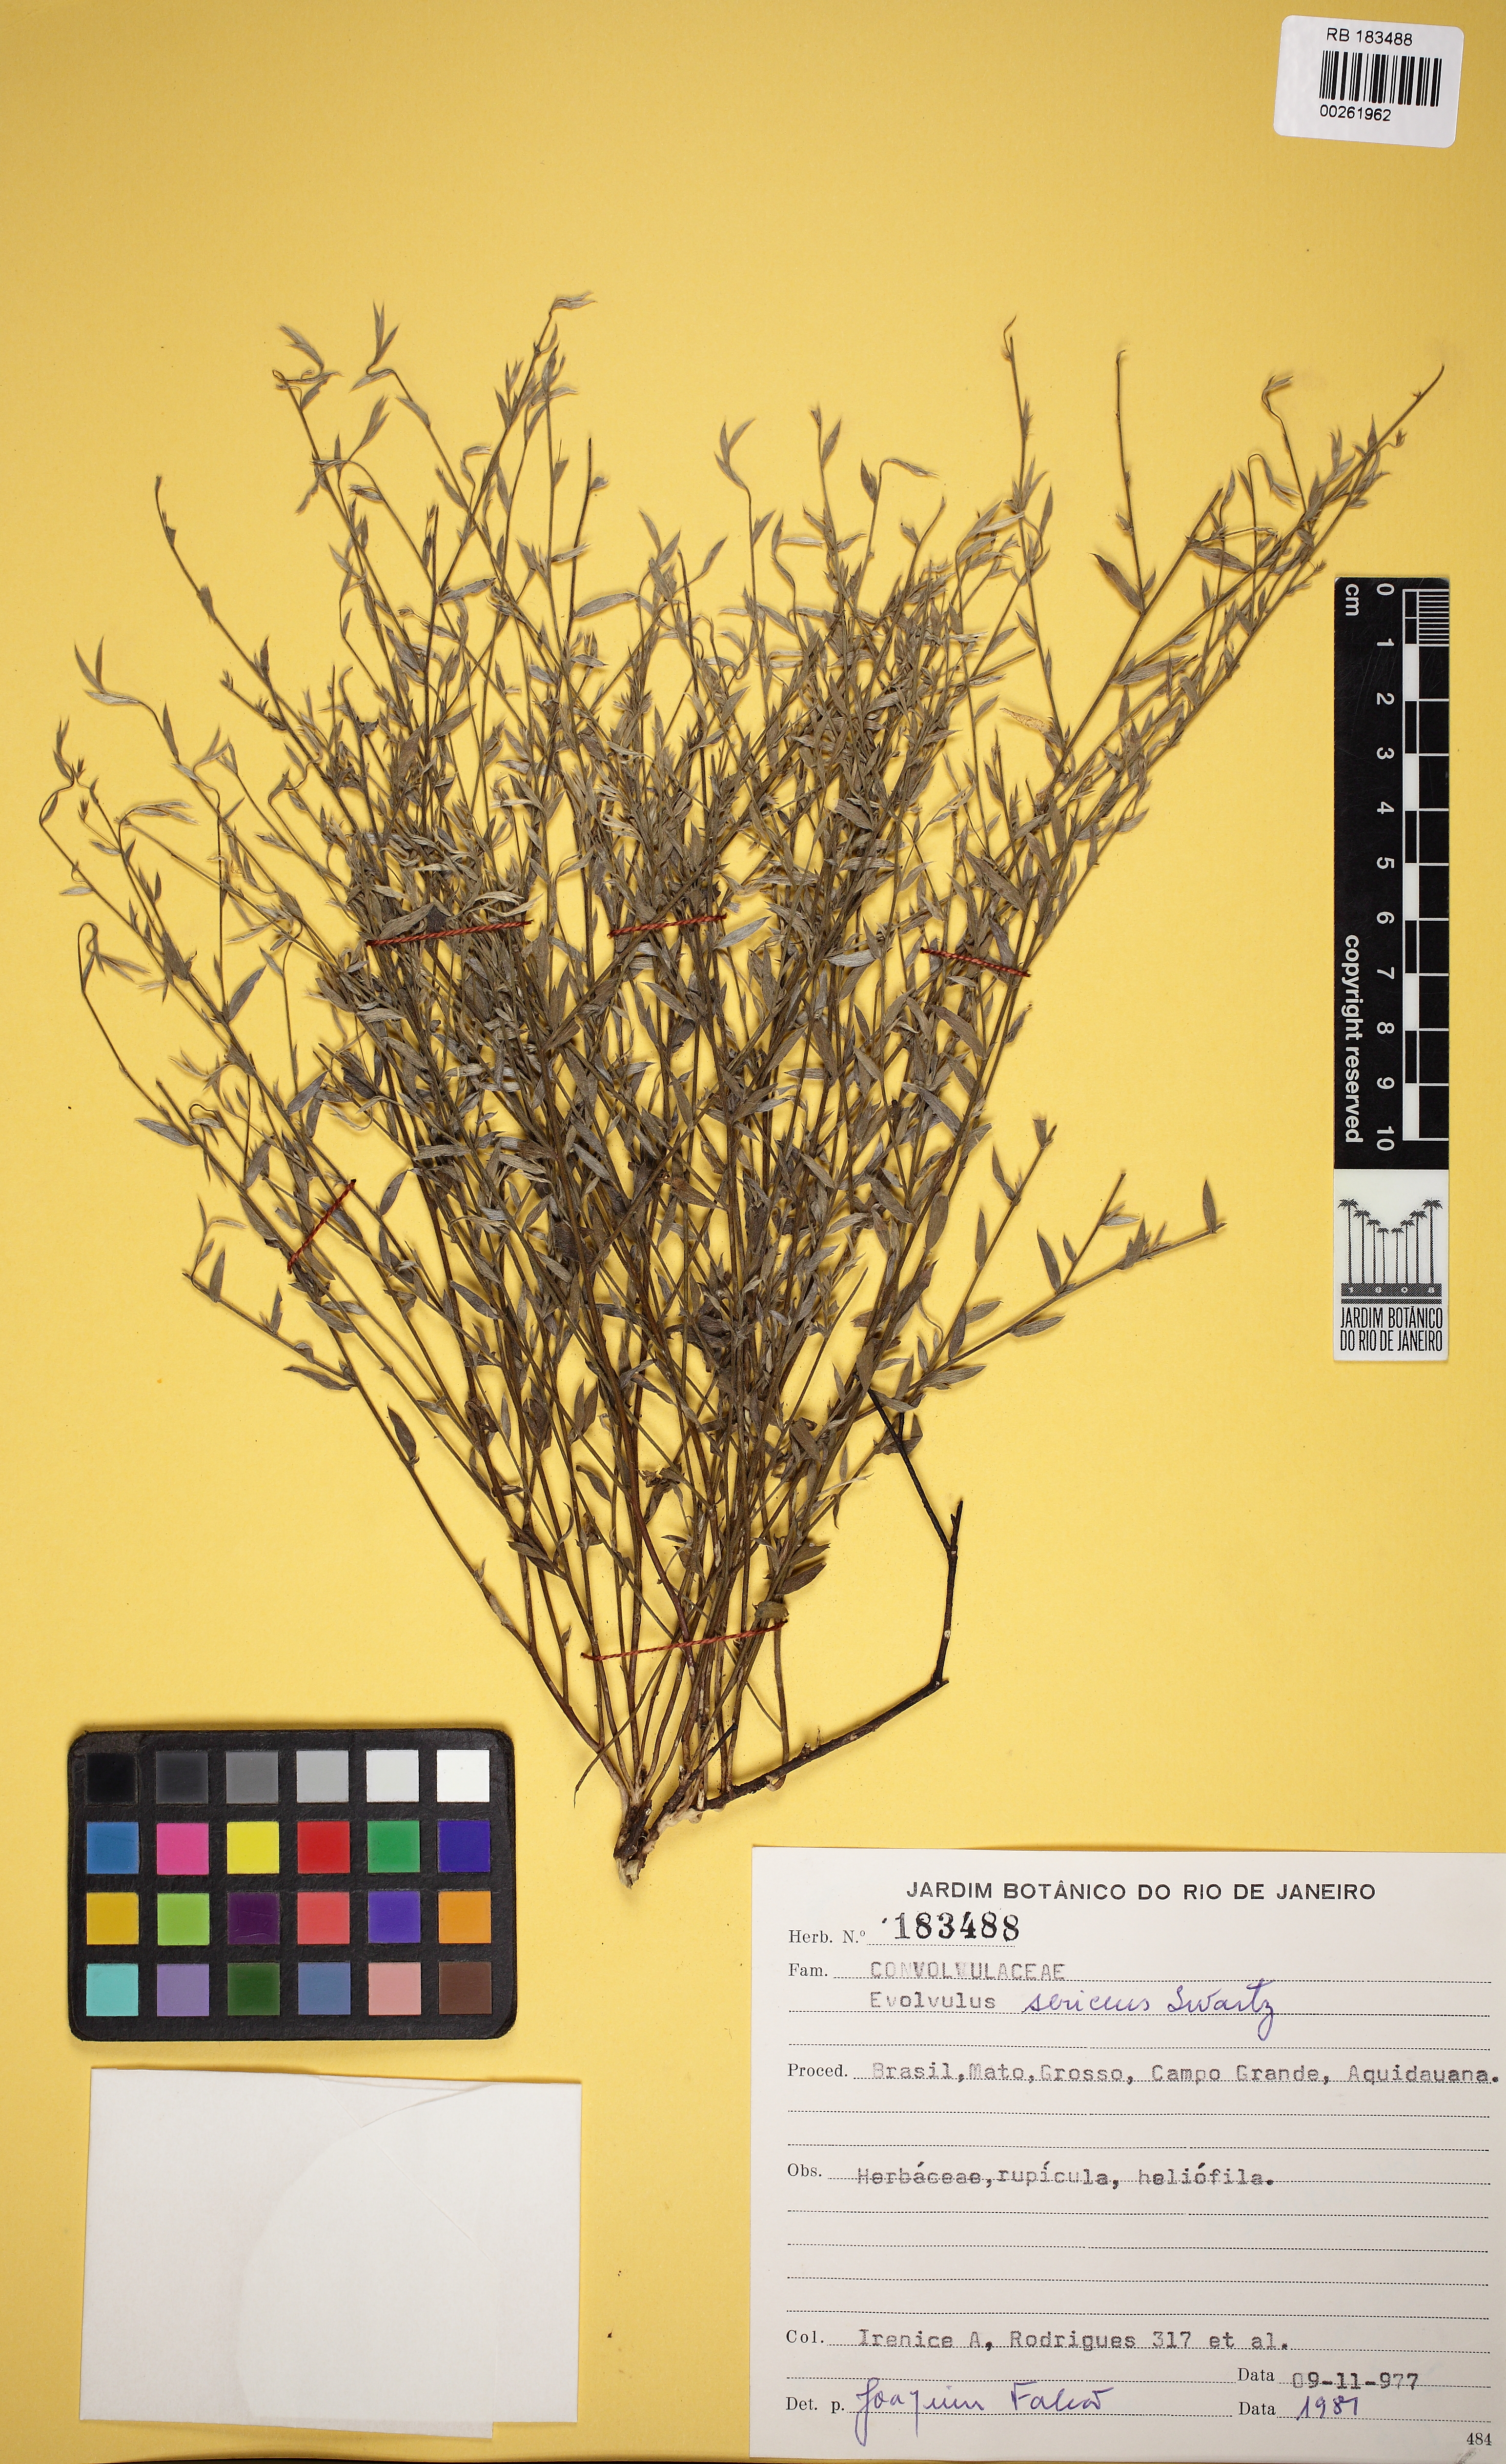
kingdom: Plantae
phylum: Tracheophyta
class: Magnoliopsida
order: Solanales
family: Convolvulaceae
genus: Evolvulus
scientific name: Evolvulus sericeus
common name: Blue dots
